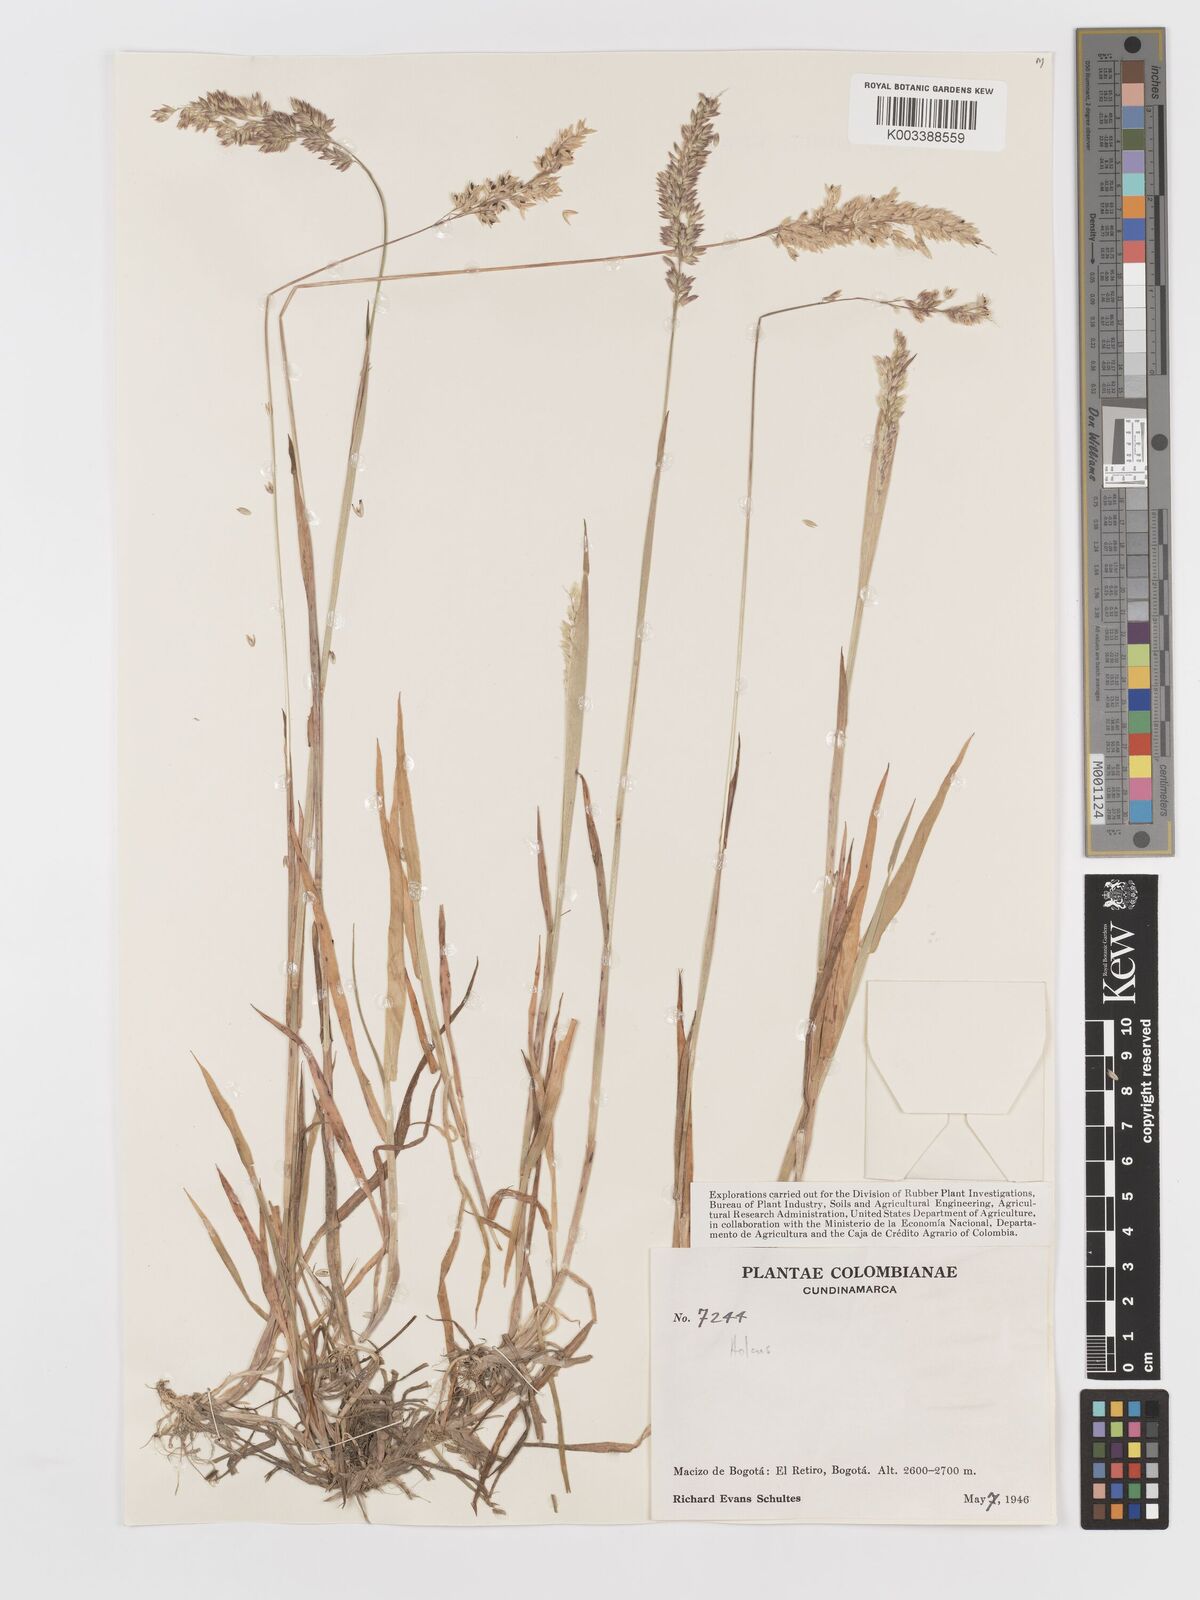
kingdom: Plantae
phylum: Tracheophyta
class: Liliopsida
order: Poales
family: Poaceae
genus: Holcus
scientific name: Holcus lanatus
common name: Yorkshire-fog
